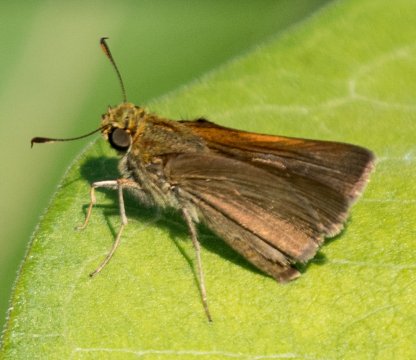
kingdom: Animalia
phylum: Arthropoda
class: Insecta
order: Lepidoptera
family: Hesperiidae
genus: Polites
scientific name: Polites themistocles
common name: Tawny-edged Skipper
